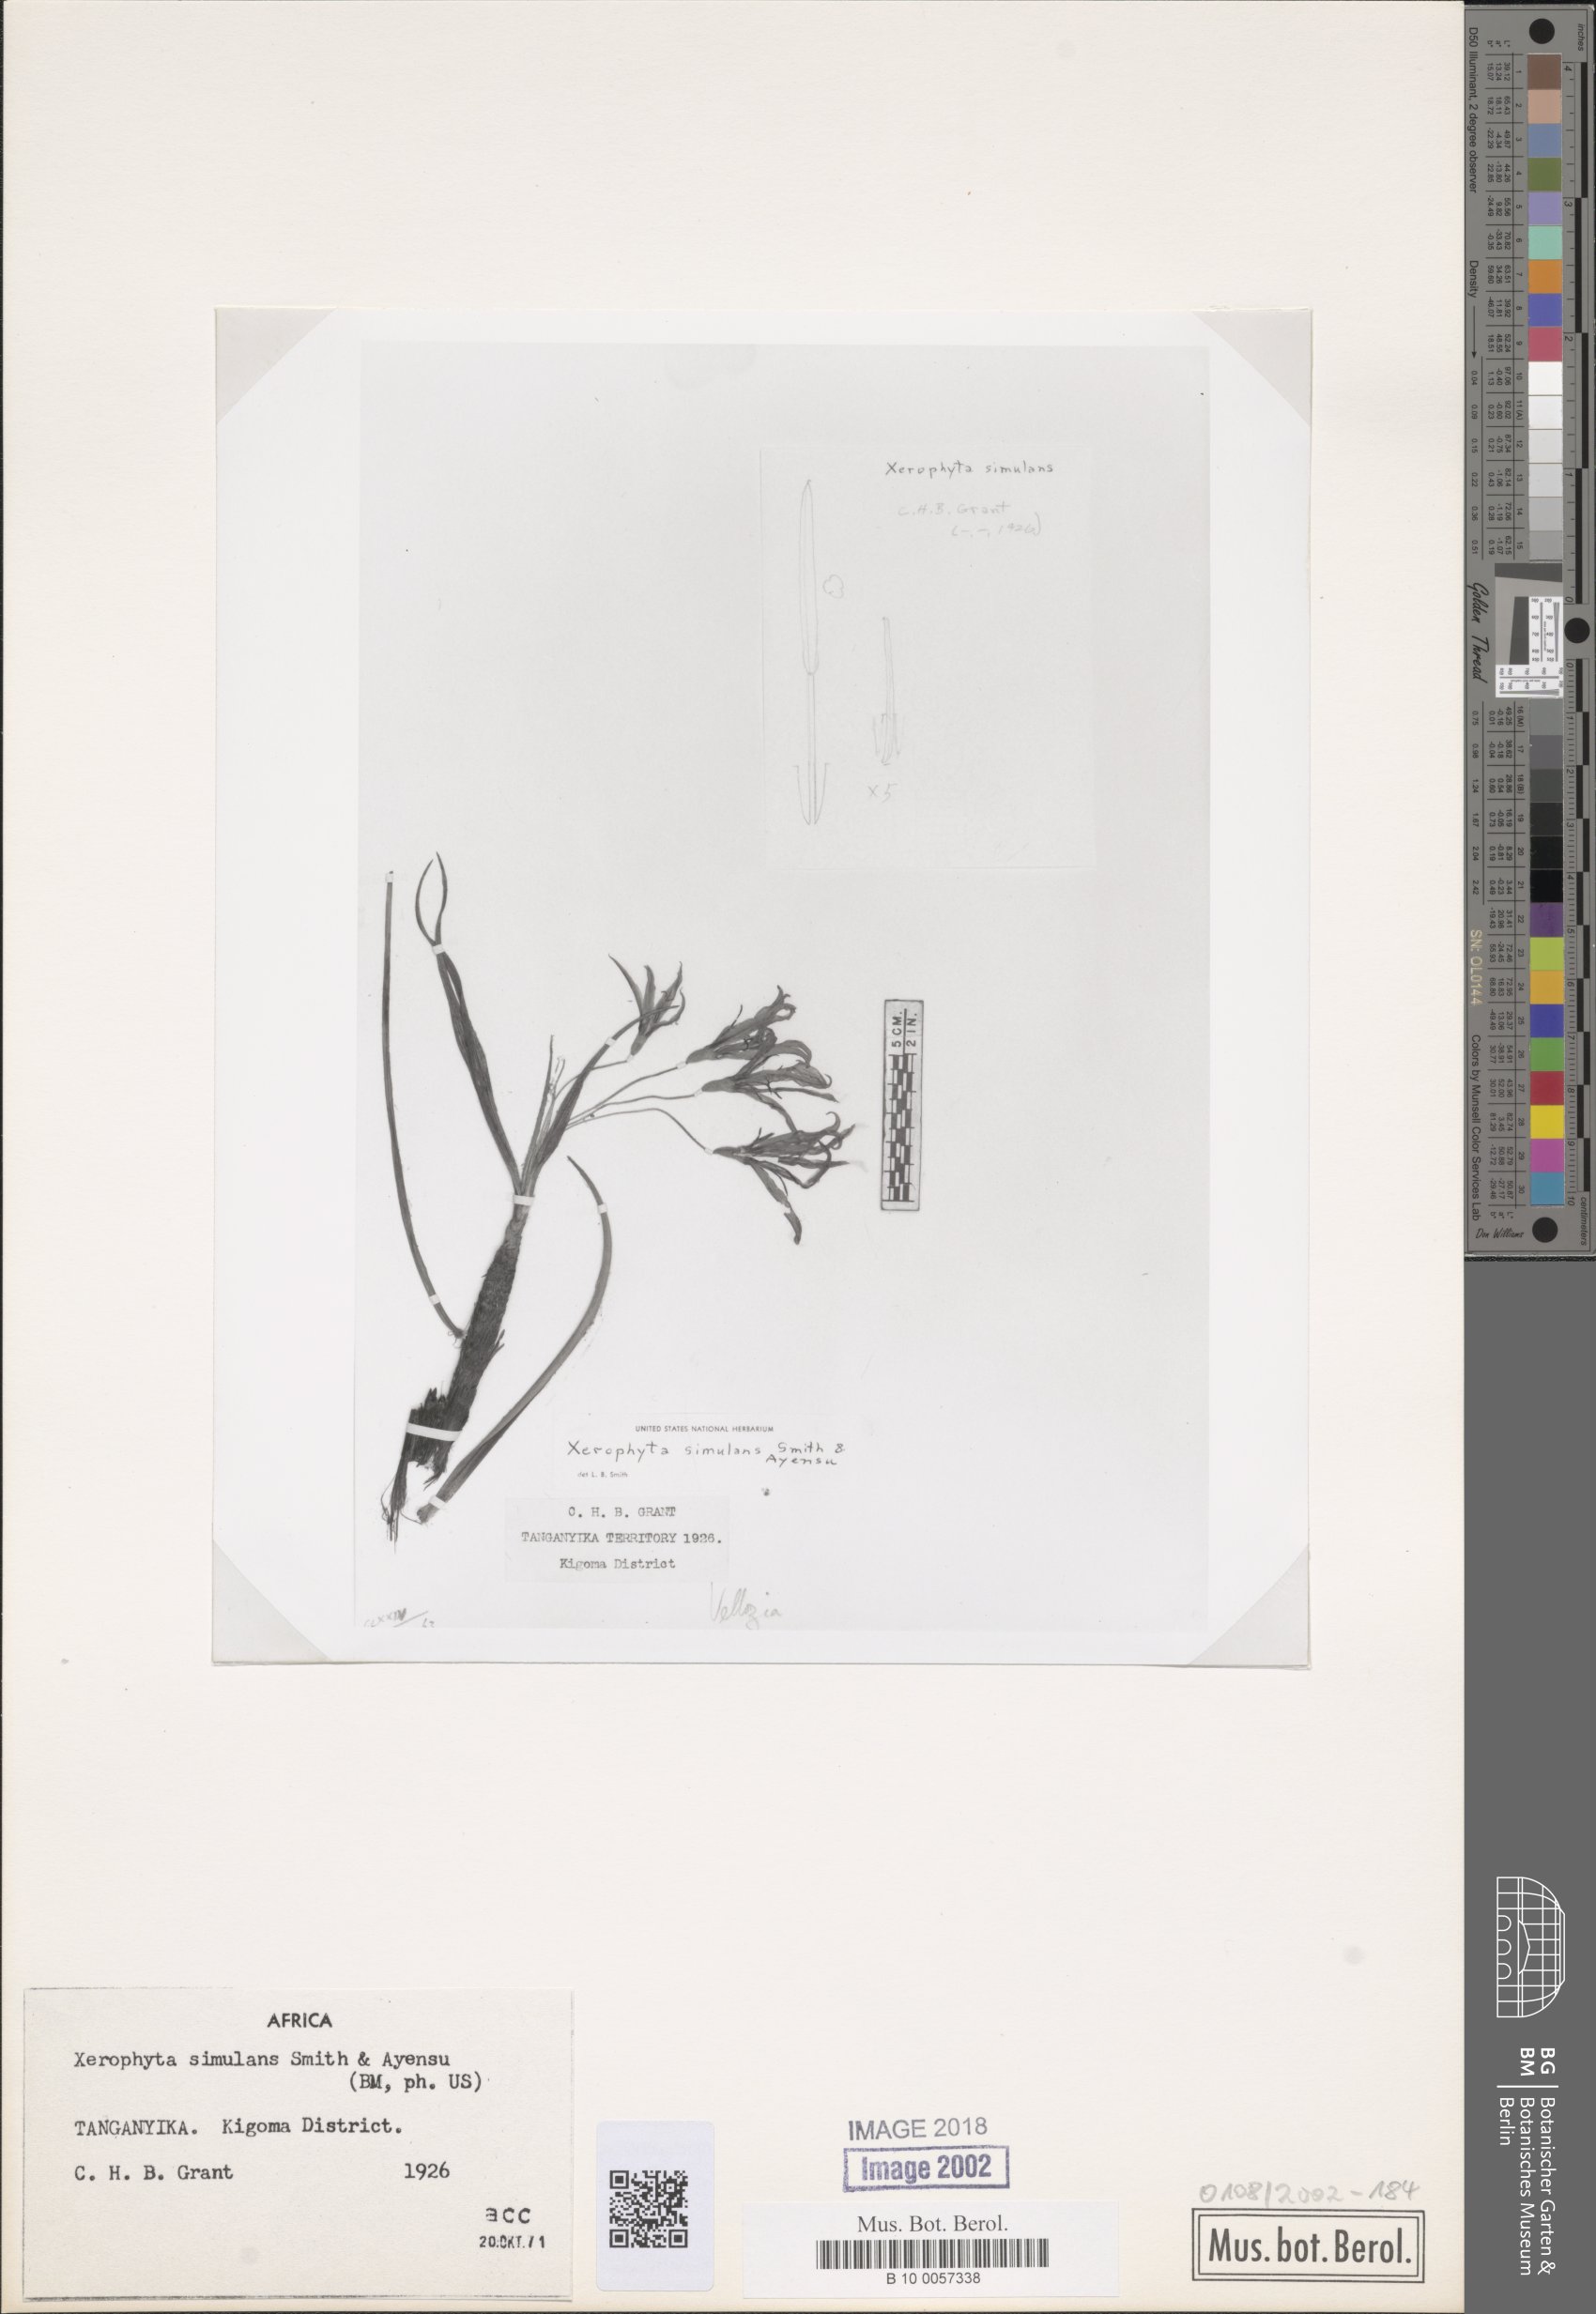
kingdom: Plantae
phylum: Tracheophyta
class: Liliopsida
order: Pandanales
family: Velloziaceae
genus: Xerophyta
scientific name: Xerophyta simulans
